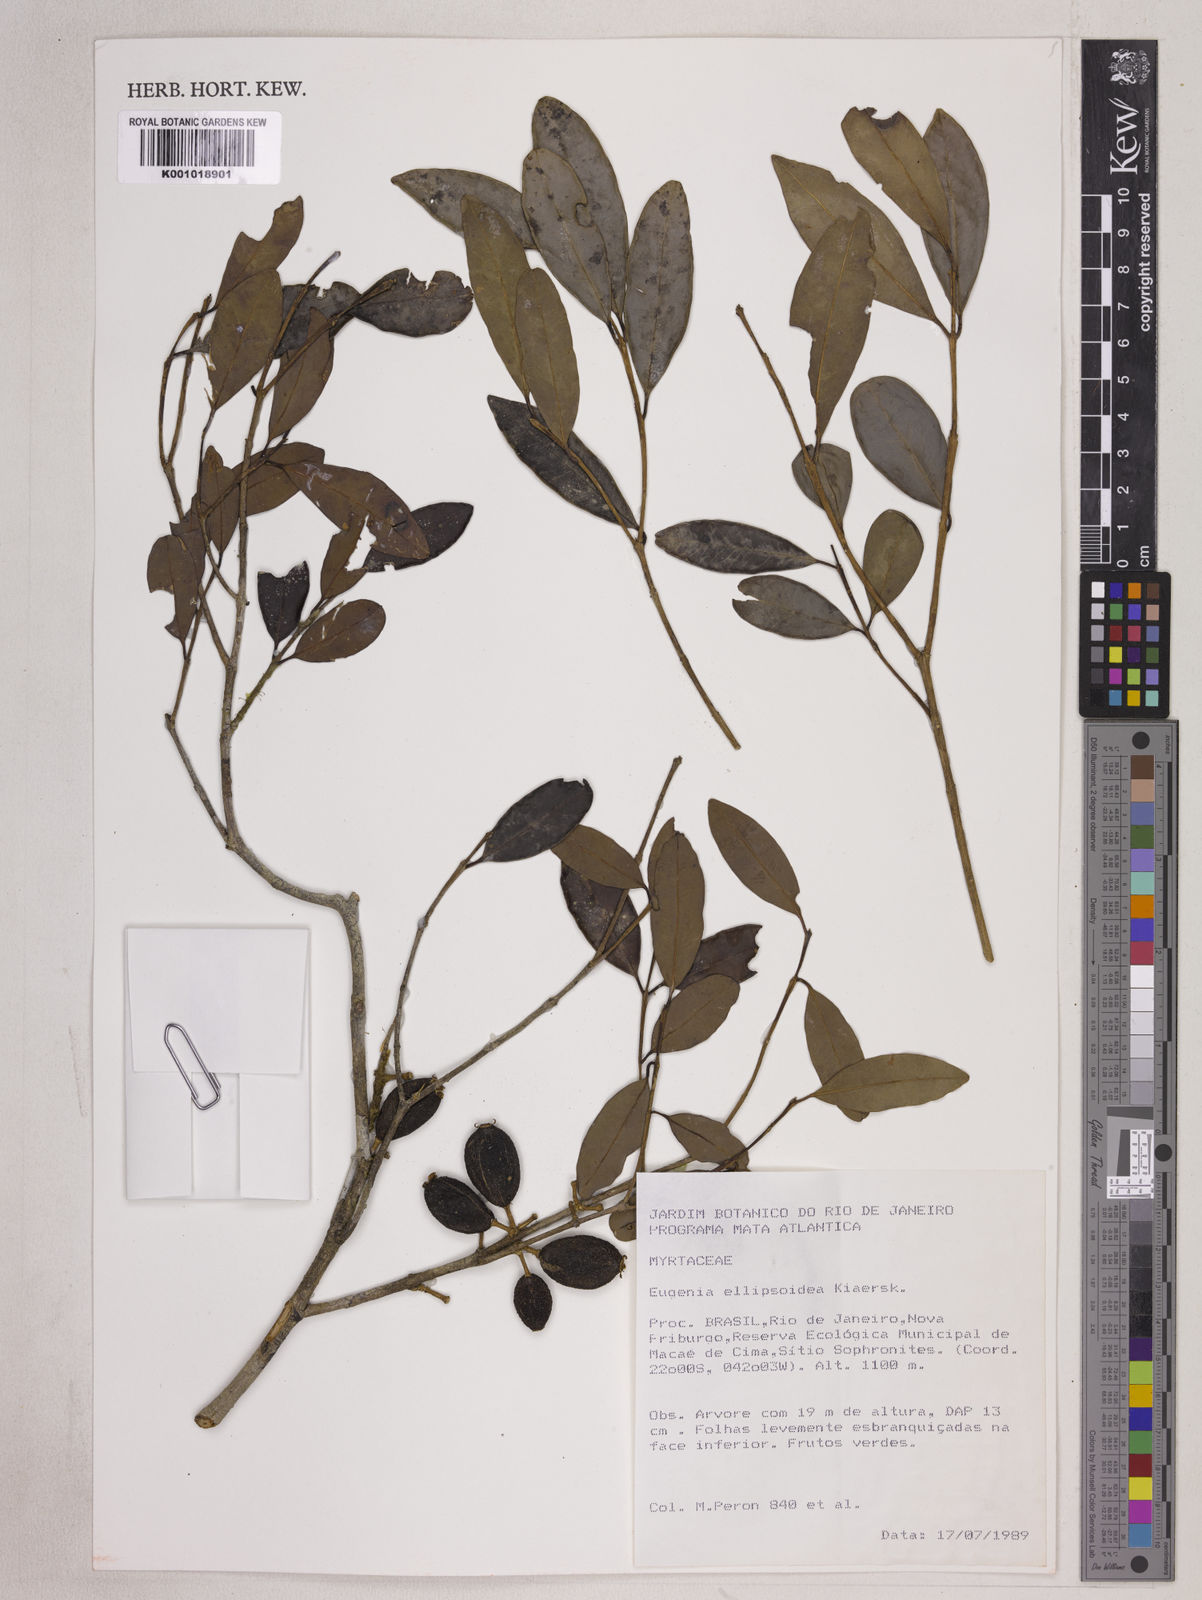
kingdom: Plantae
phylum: Tracheophyta
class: Magnoliopsida
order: Myrtales
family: Myrtaceae
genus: Eugenia
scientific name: Eugenia ellipsoidea
